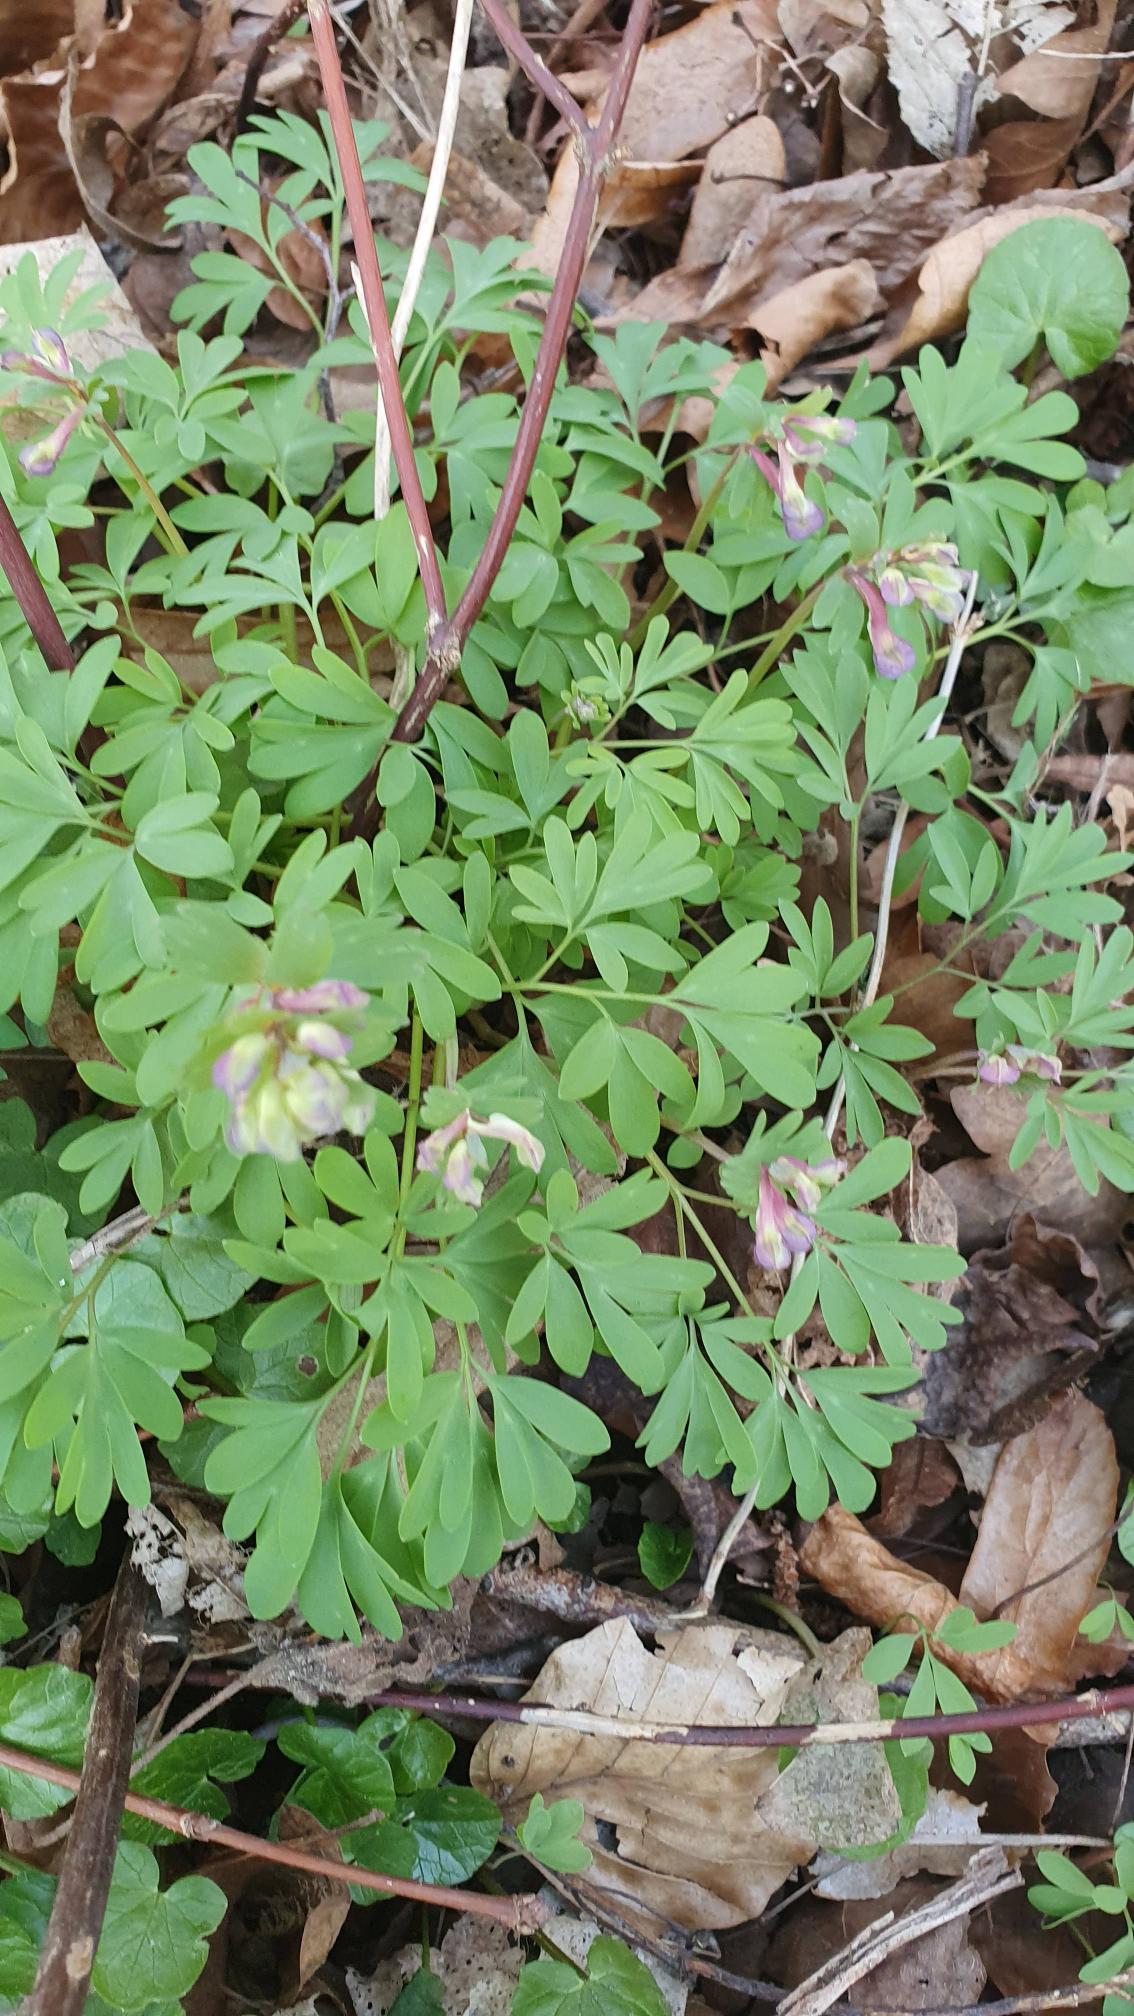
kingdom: Plantae
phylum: Tracheophyta
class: Magnoliopsida
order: Ranunculales
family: Papaveraceae
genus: Corydalis
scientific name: Corydalis solida
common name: Langstilket lærkespore
